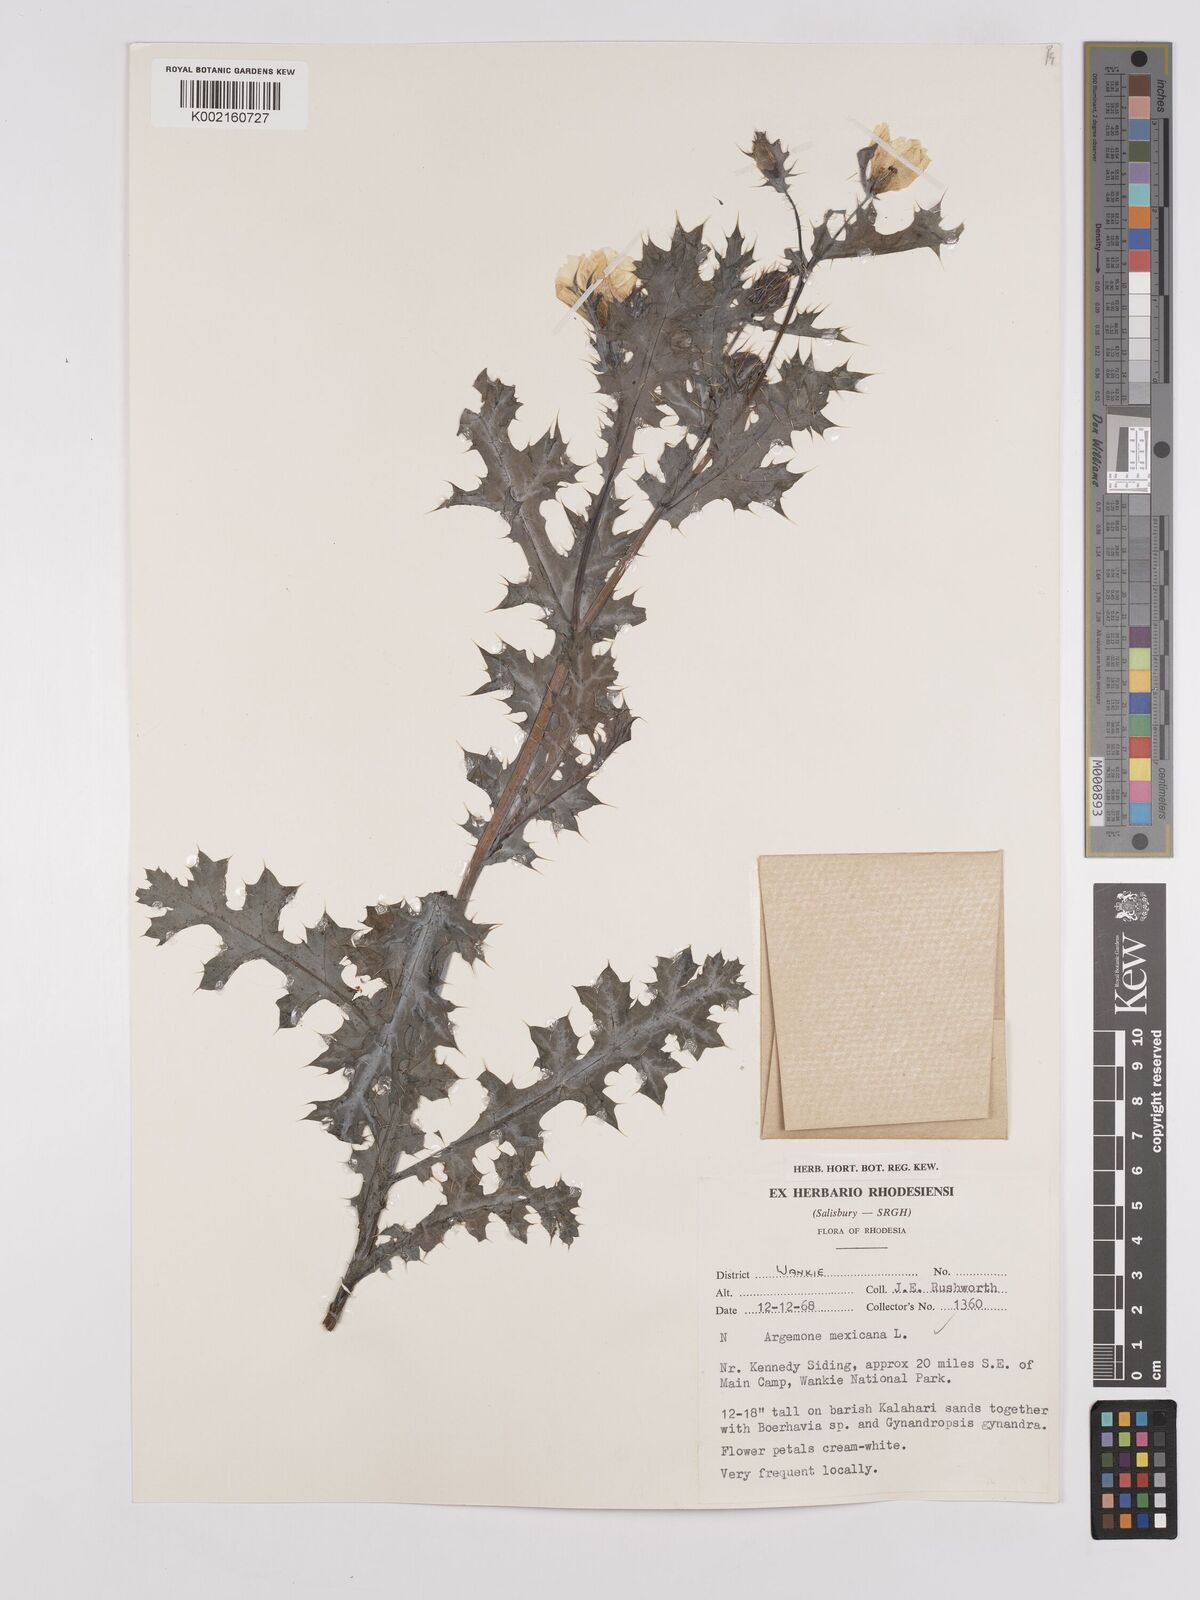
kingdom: Plantae
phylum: Tracheophyta
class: Magnoliopsida
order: Ranunculales
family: Papaveraceae
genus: Argemone
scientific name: Argemone mexicana
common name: Mexican poppy
